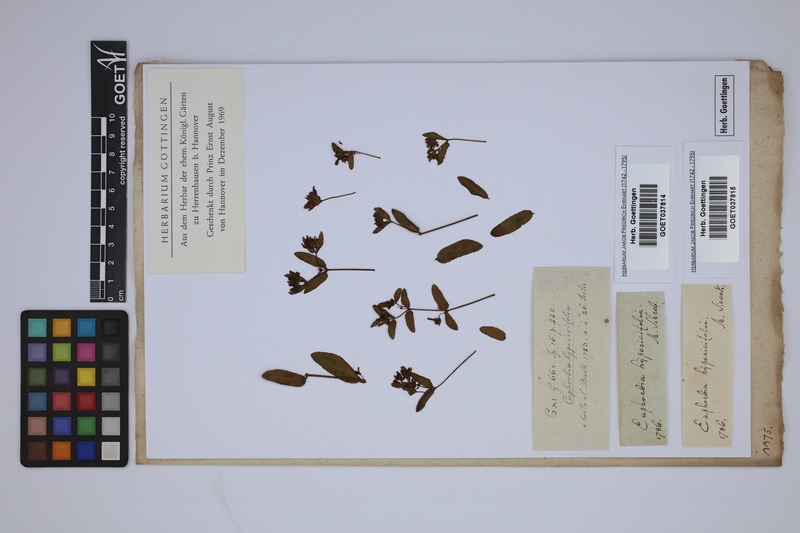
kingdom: Plantae
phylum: Tracheophyta
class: Magnoliopsida
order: Malpighiales
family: Euphorbiaceae
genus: Euphorbia
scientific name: Euphorbia hypericifolia
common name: Graceful sandmat
